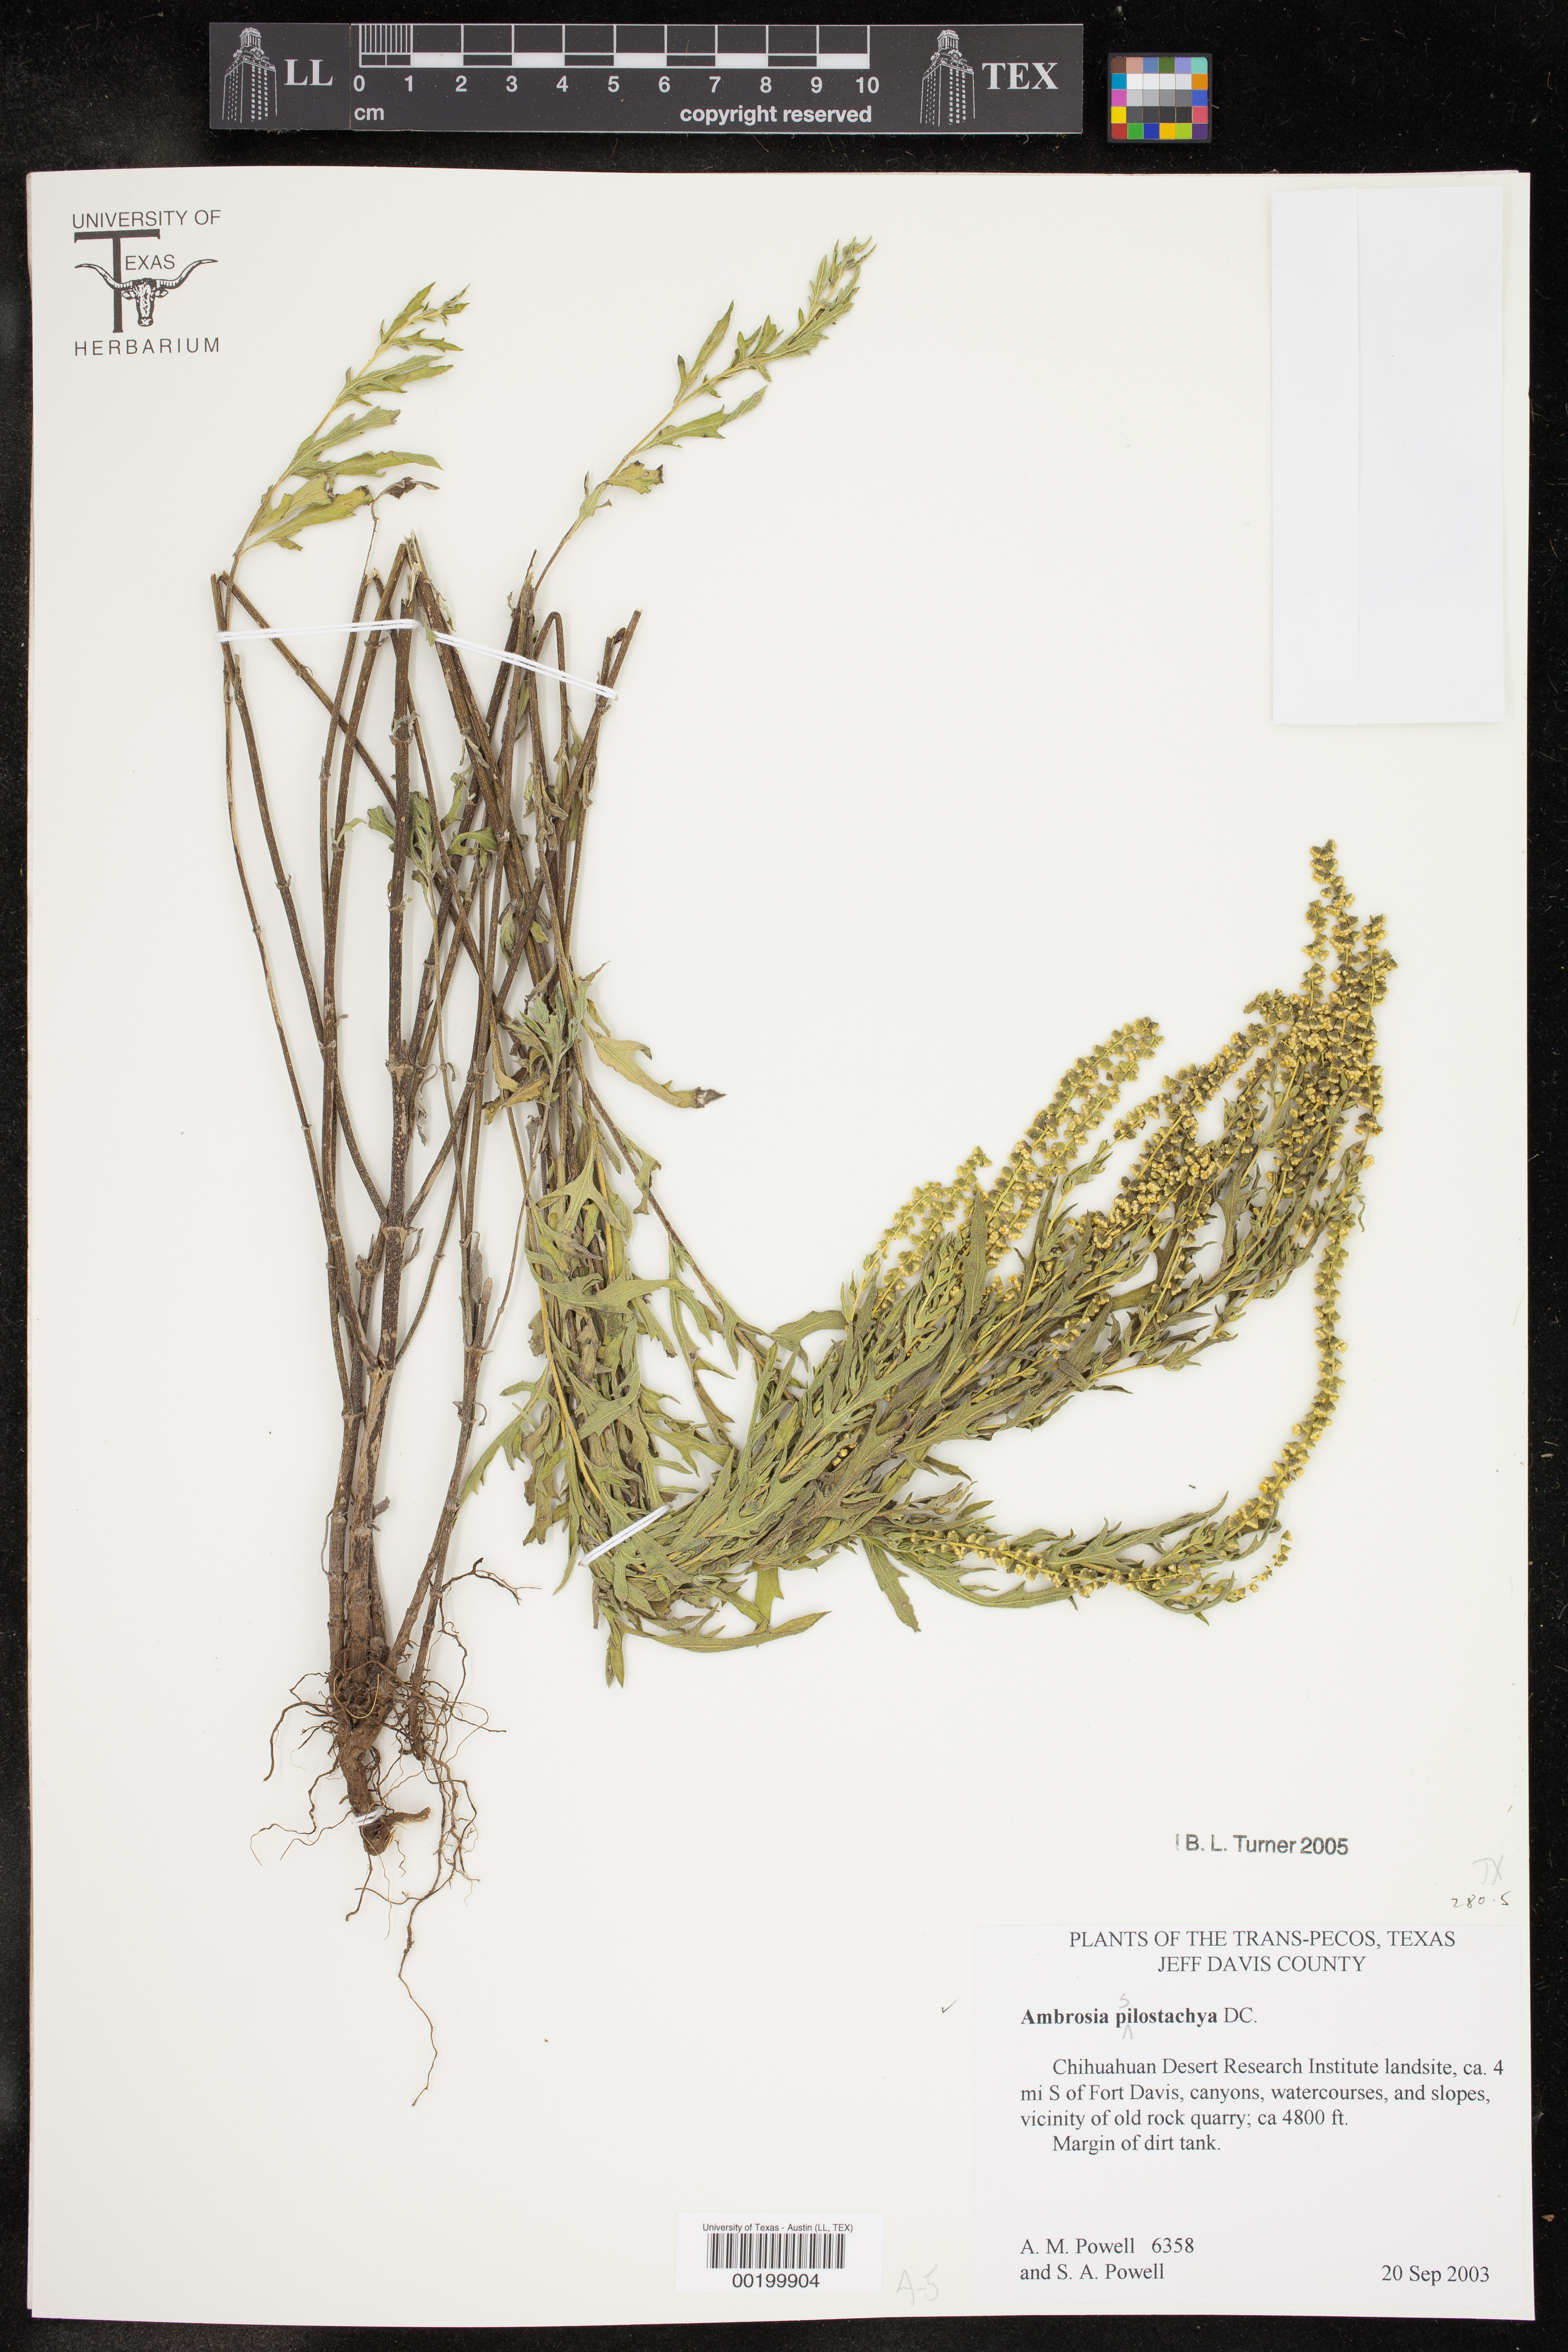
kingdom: Plantae
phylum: Tracheophyta
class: Magnoliopsida
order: Asterales
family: Asteraceae
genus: Ambrosia
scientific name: Ambrosia psilostachya
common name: Perennial ragweed
